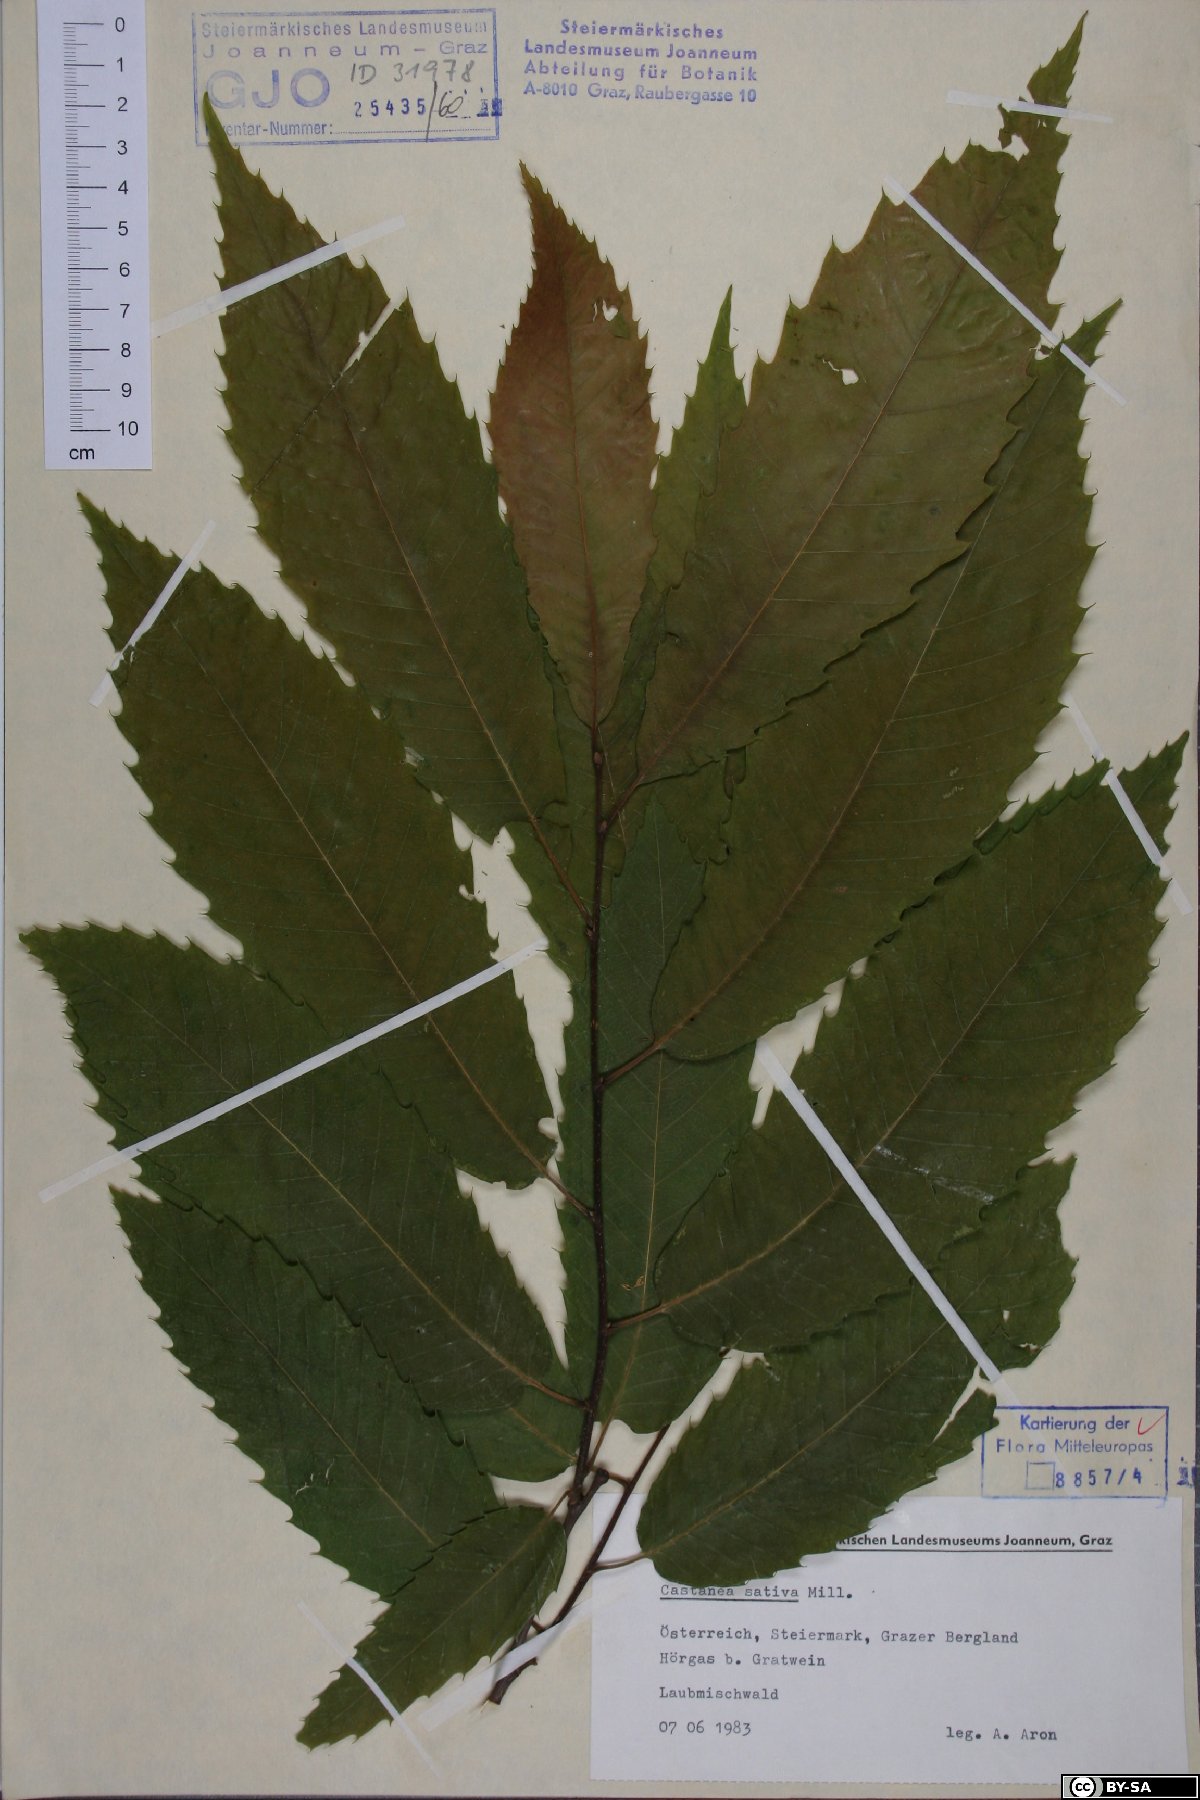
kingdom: Plantae
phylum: Tracheophyta
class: Magnoliopsida
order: Fagales
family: Fagaceae
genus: Castanea
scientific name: Castanea sativa
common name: Sweet chestnut
